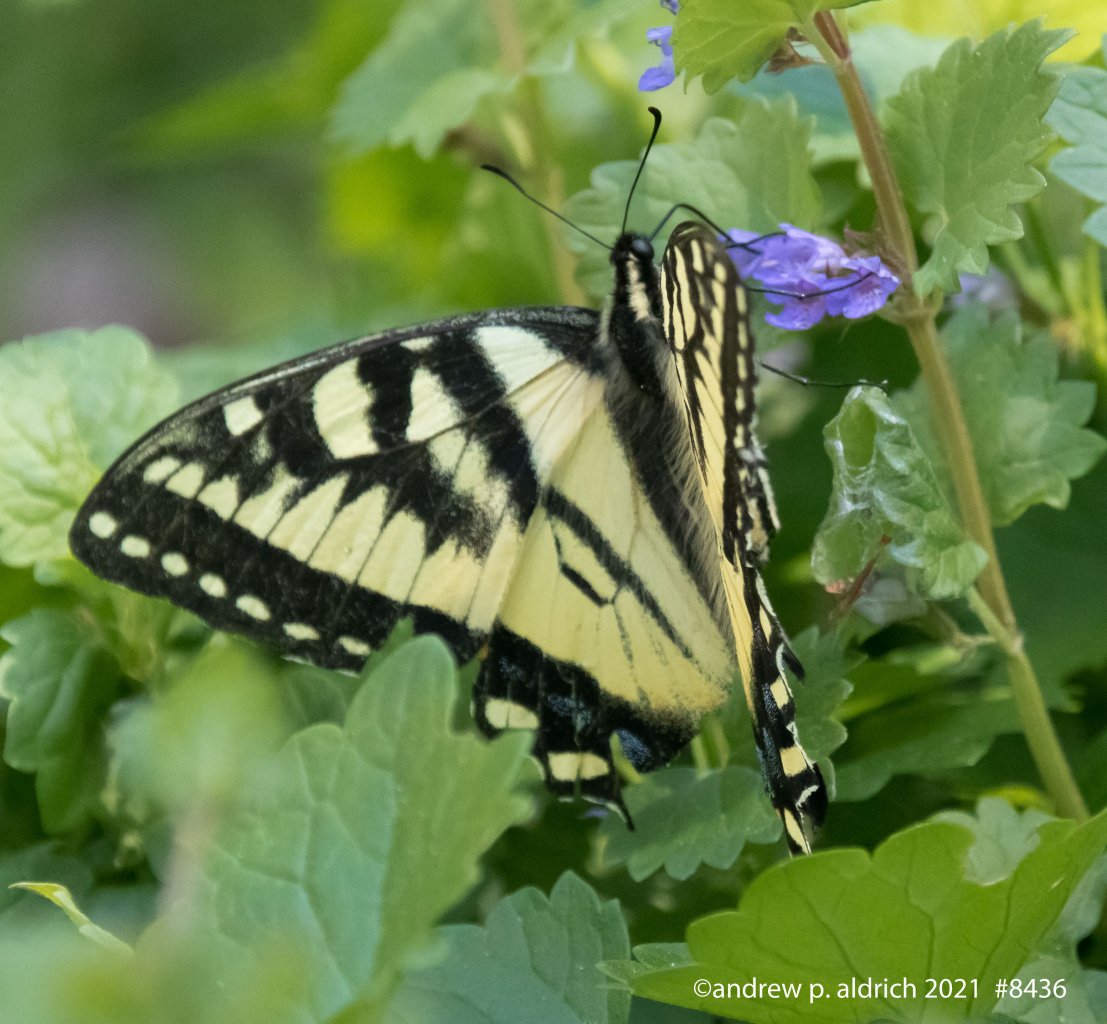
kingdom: Animalia
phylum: Arthropoda
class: Insecta
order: Lepidoptera
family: Papilionidae
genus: Pterourus
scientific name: Pterourus canadensis
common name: Canadian Tiger Swallowtail
